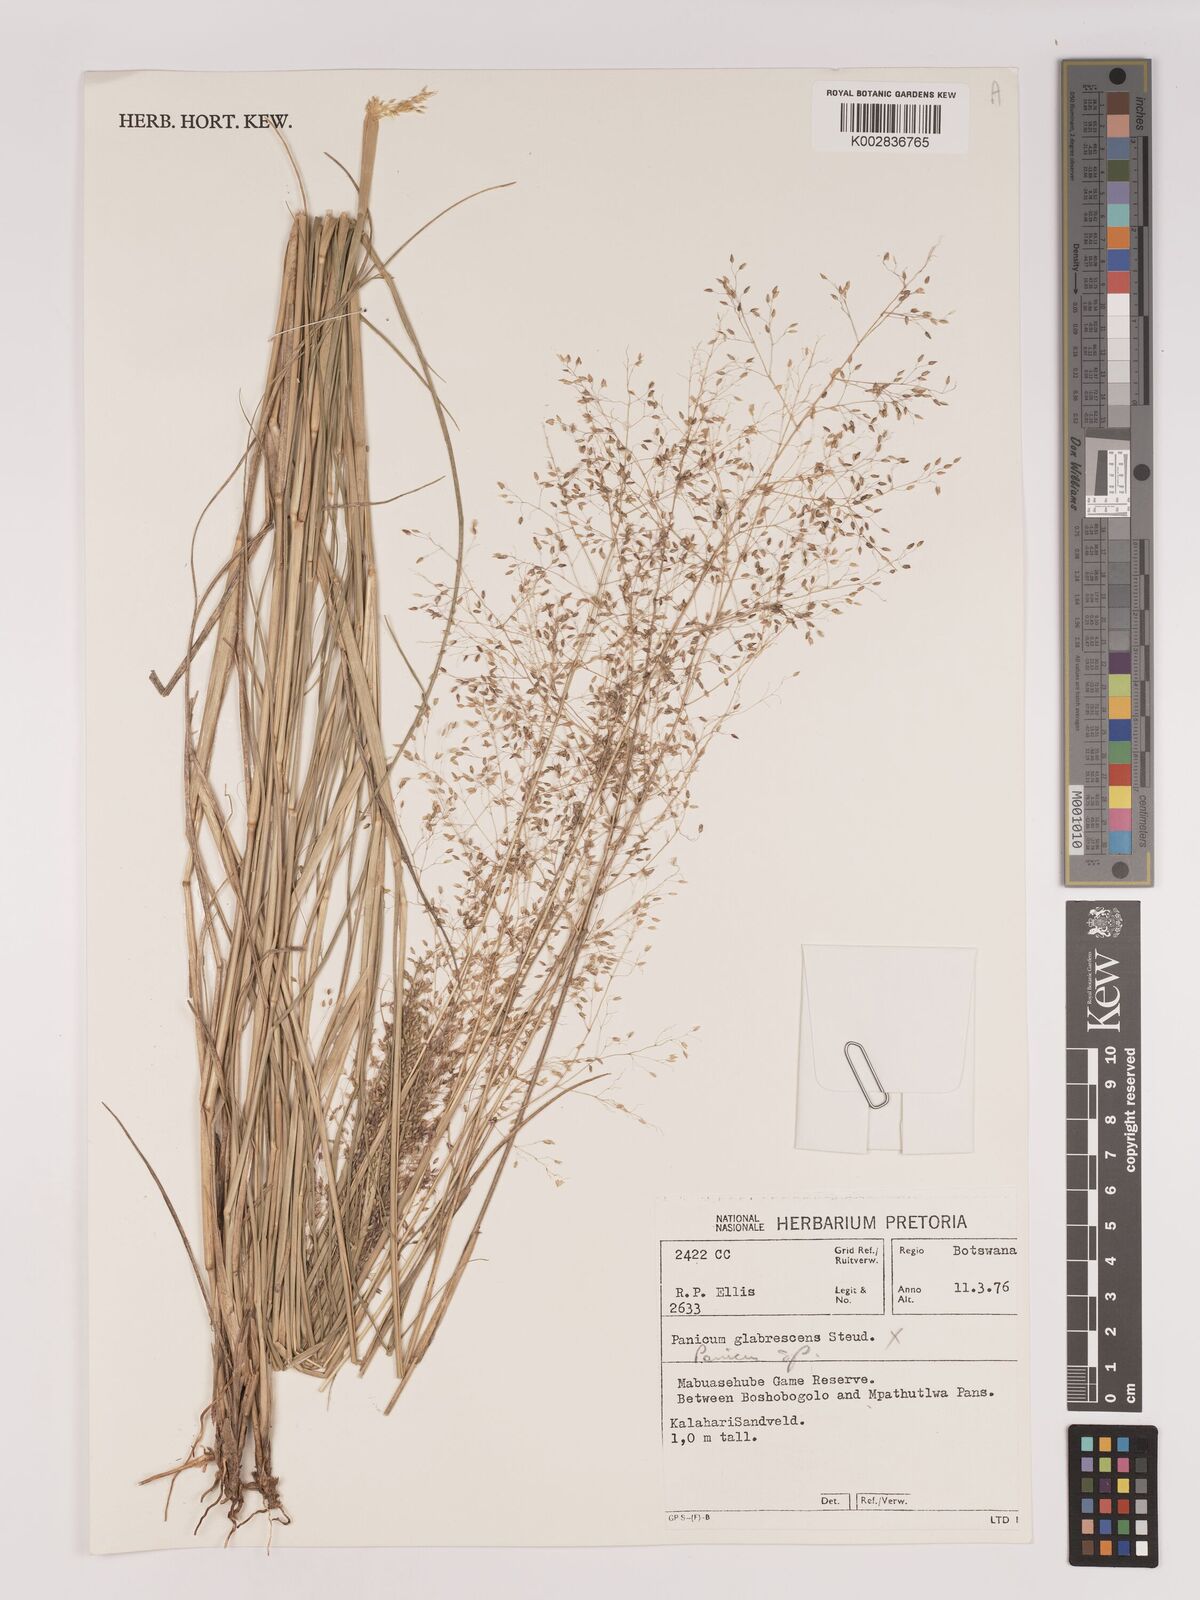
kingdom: Plantae
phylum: Tracheophyta
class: Liliopsida
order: Poales
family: Poaceae
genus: Tricholaena
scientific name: Tricholaena monachne
